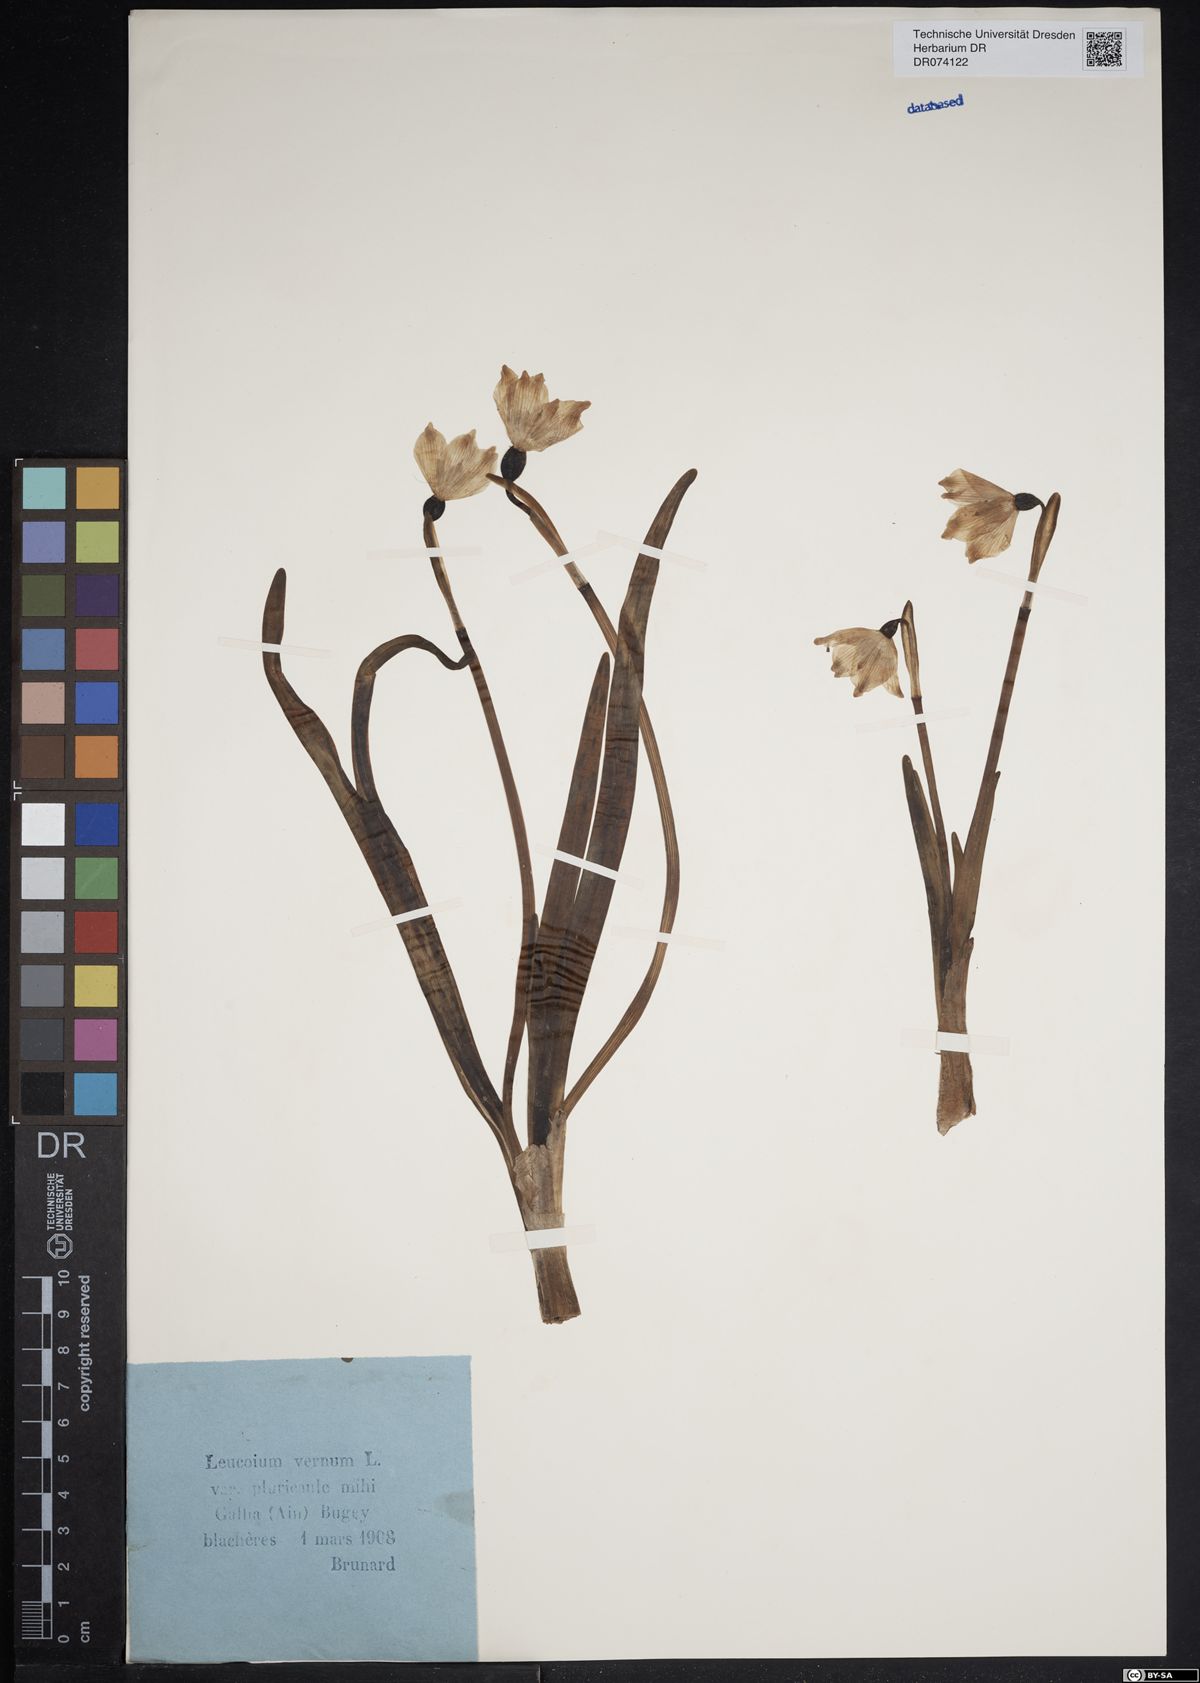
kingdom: Plantae
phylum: Tracheophyta
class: Liliopsida
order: Asparagales
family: Amaryllidaceae
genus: Leucojum
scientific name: Leucojum vernum
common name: Spring snowflake
